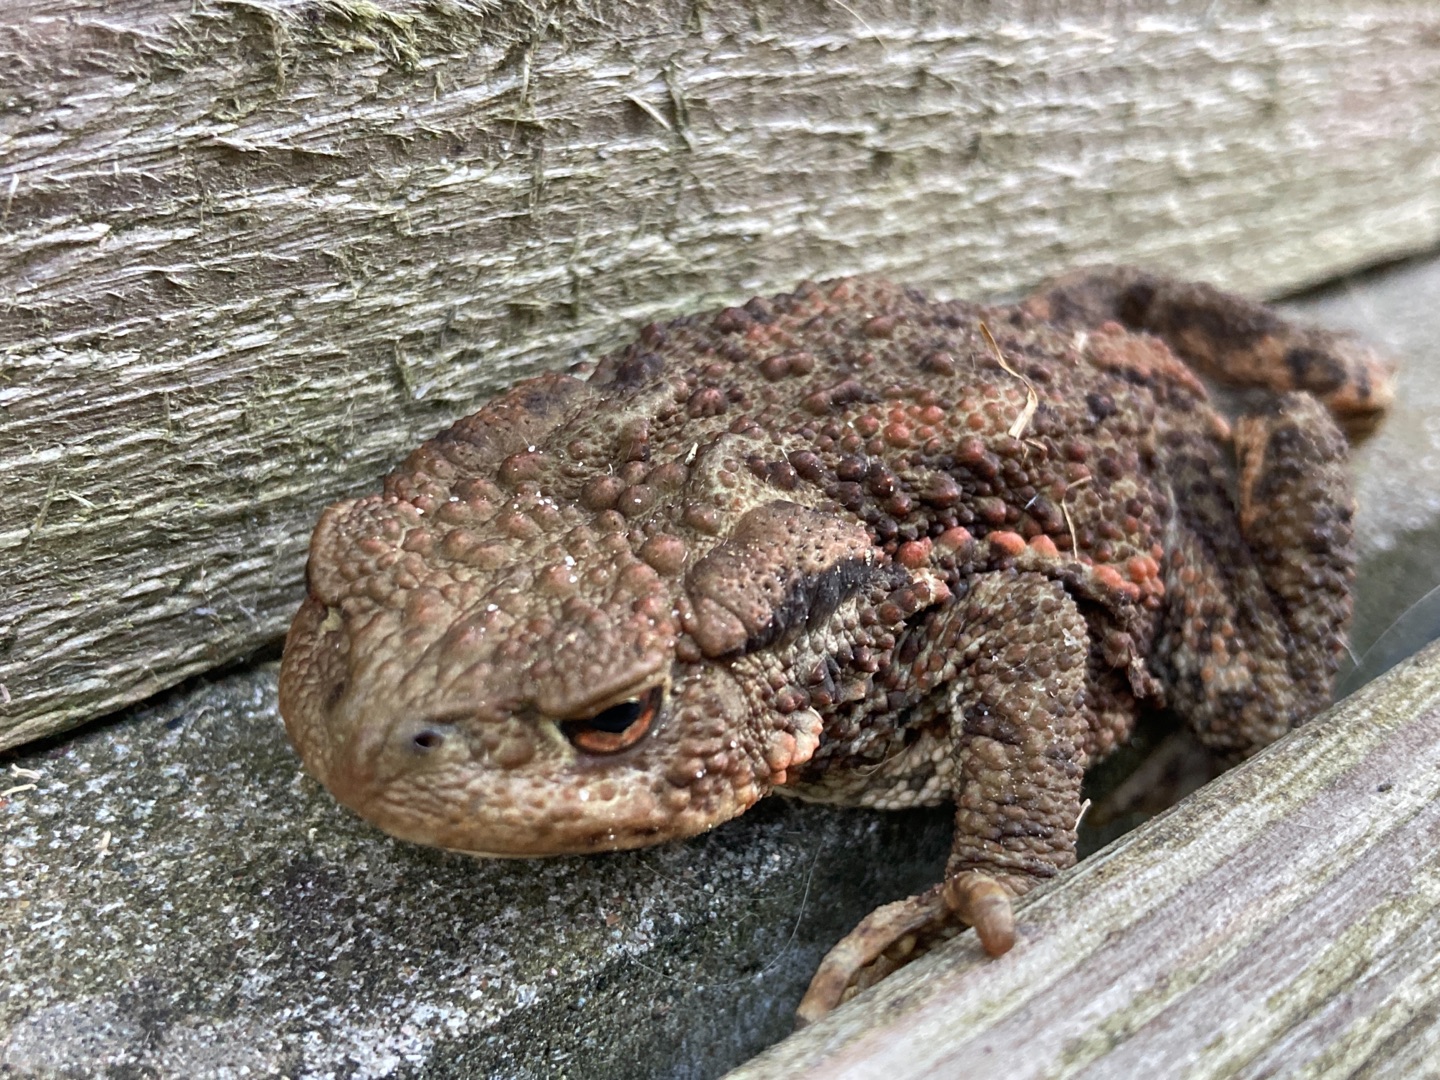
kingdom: Animalia
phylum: Chordata
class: Amphibia
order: Anura
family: Bufonidae
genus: Bufo
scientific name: Bufo bufo
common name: Skrubtudse
